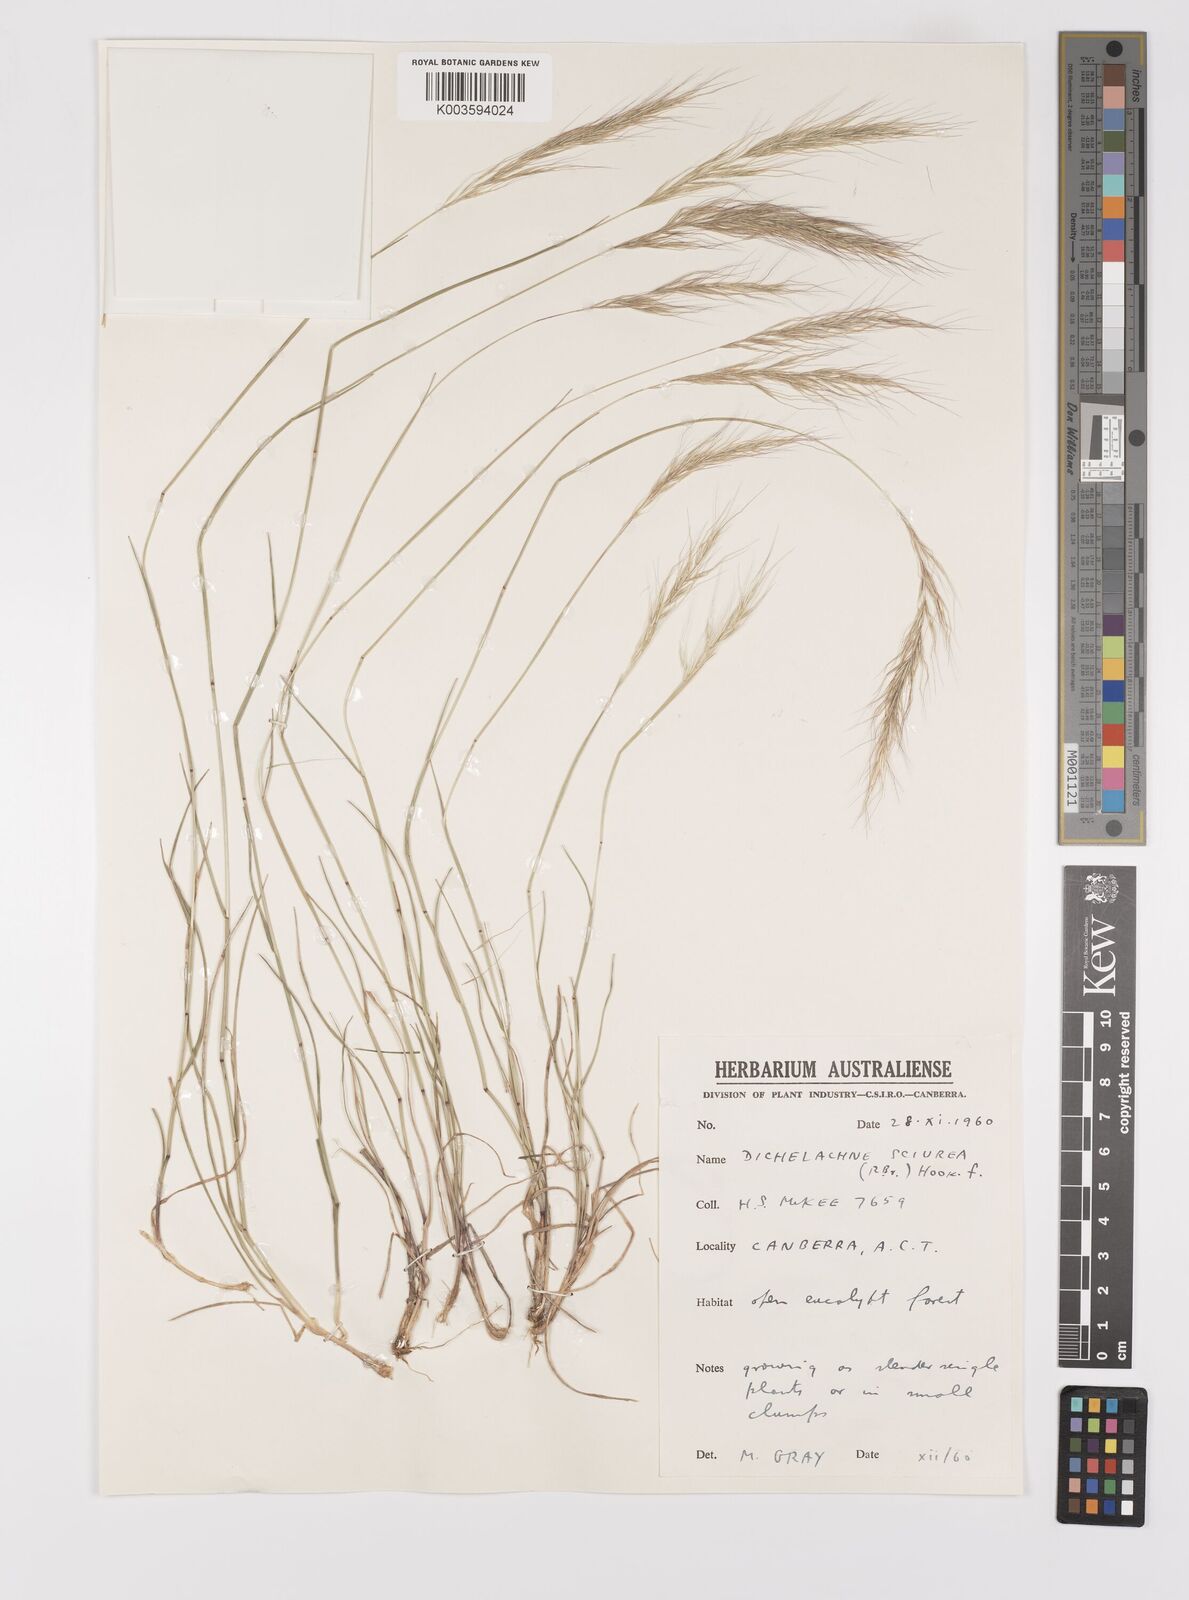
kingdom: Plantae
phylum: Tracheophyta
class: Liliopsida
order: Poales
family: Poaceae
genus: Dichelachne
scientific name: Dichelachne micrantha
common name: Plumegrass
